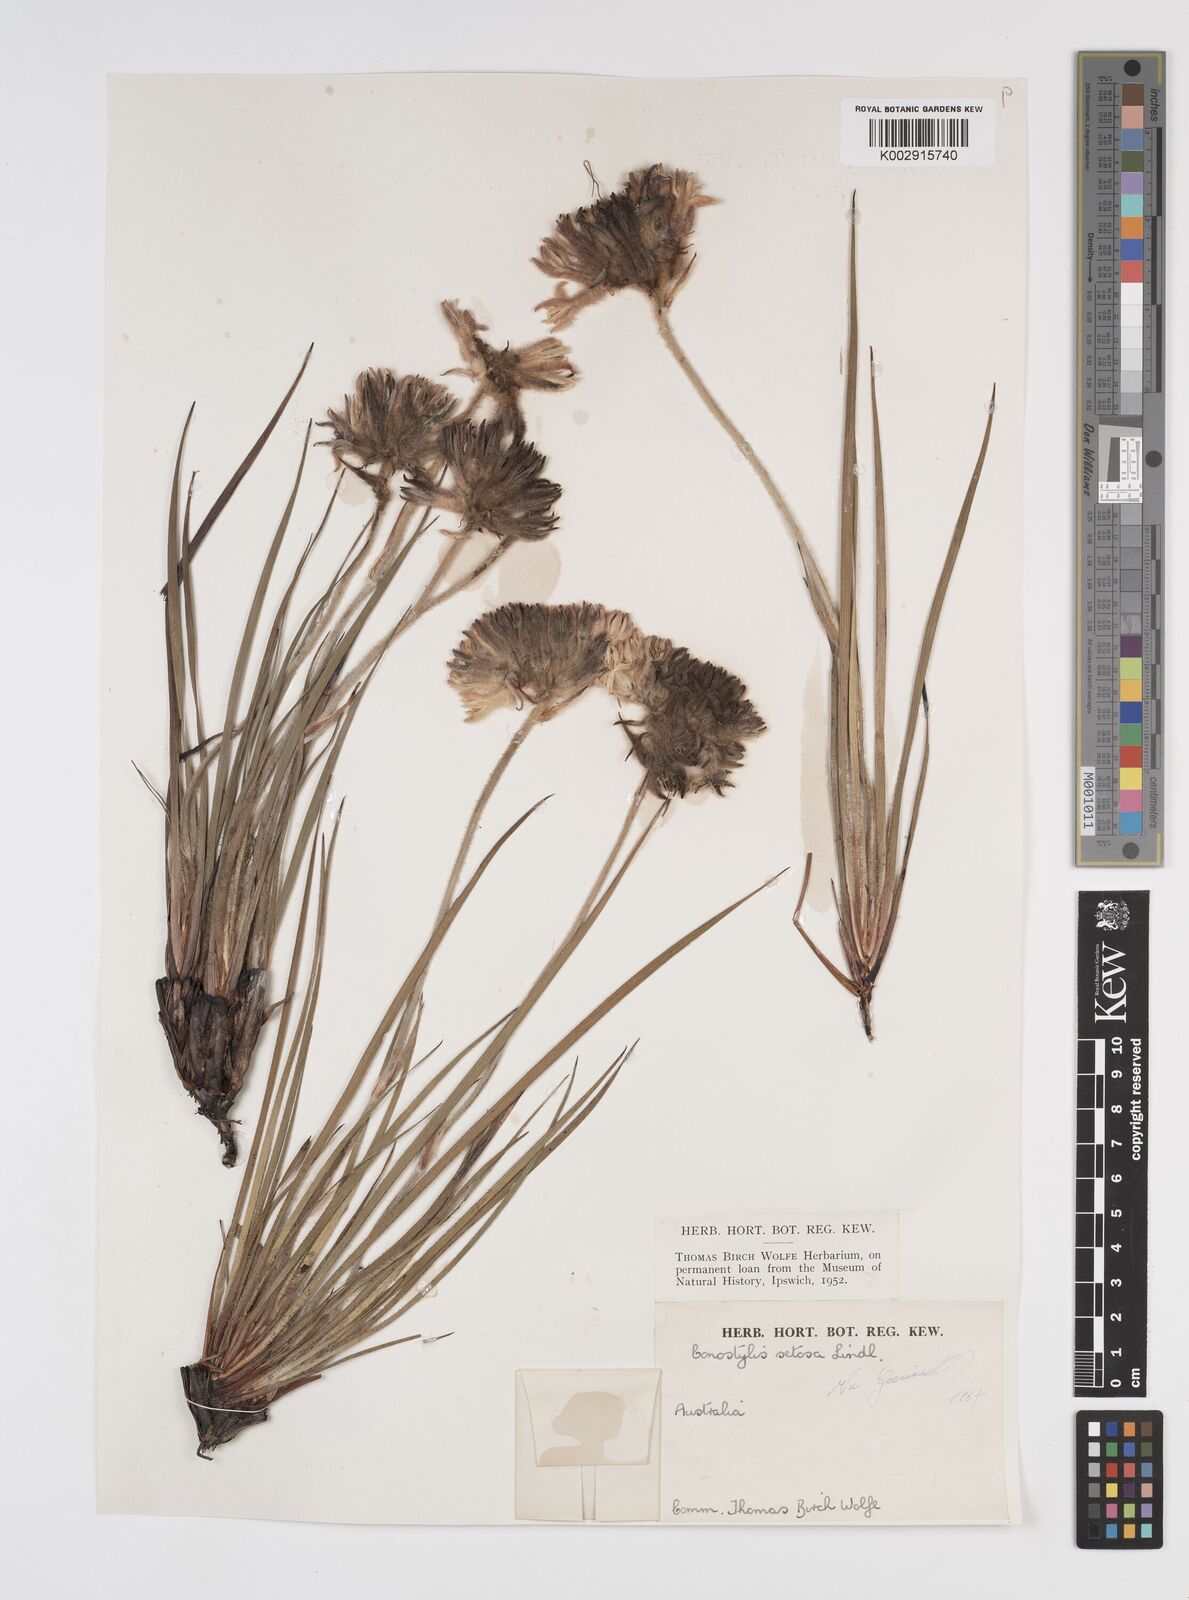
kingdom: Plantae
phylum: Tracheophyta
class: Liliopsida
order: Commelinales
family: Haemodoraceae
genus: Conostylis
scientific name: Conostylis setosa
